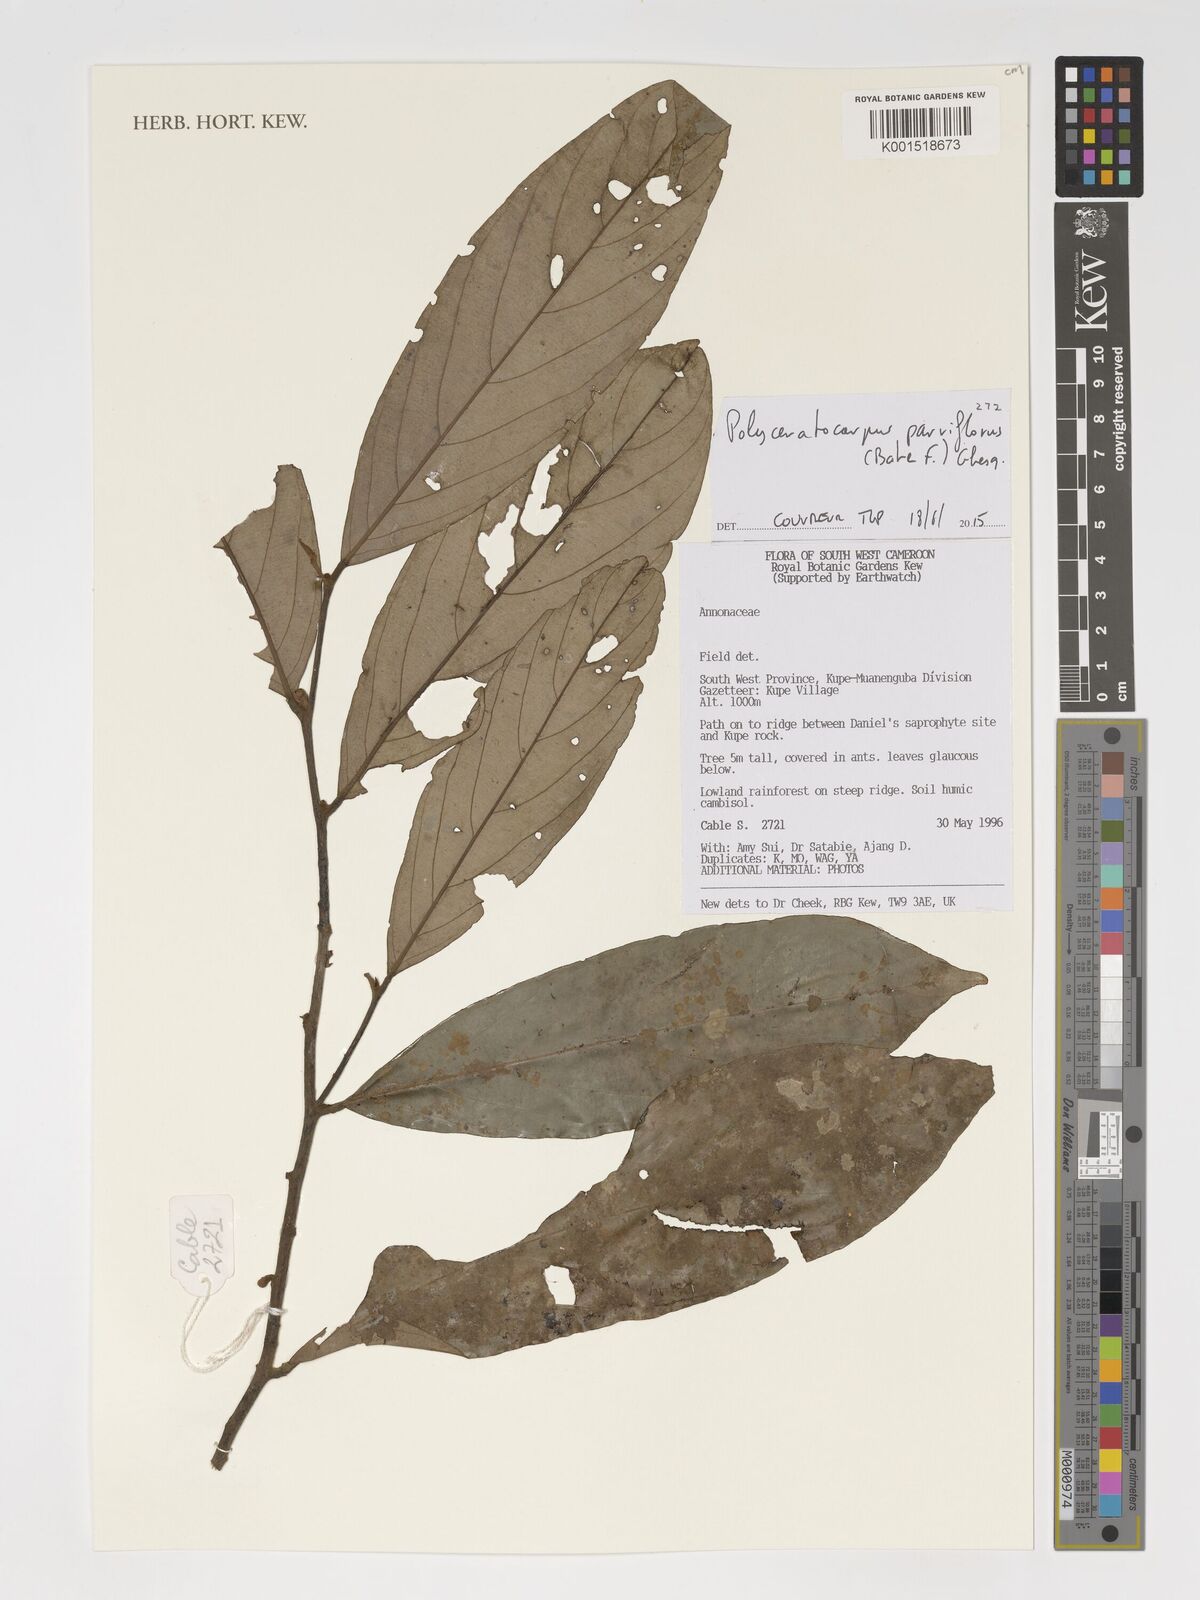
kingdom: Plantae
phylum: Tracheophyta
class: Magnoliopsida
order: Magnoliales
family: Annonaceae
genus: Polyceratocarpus
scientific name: Polyceratocarpus parviflorus
